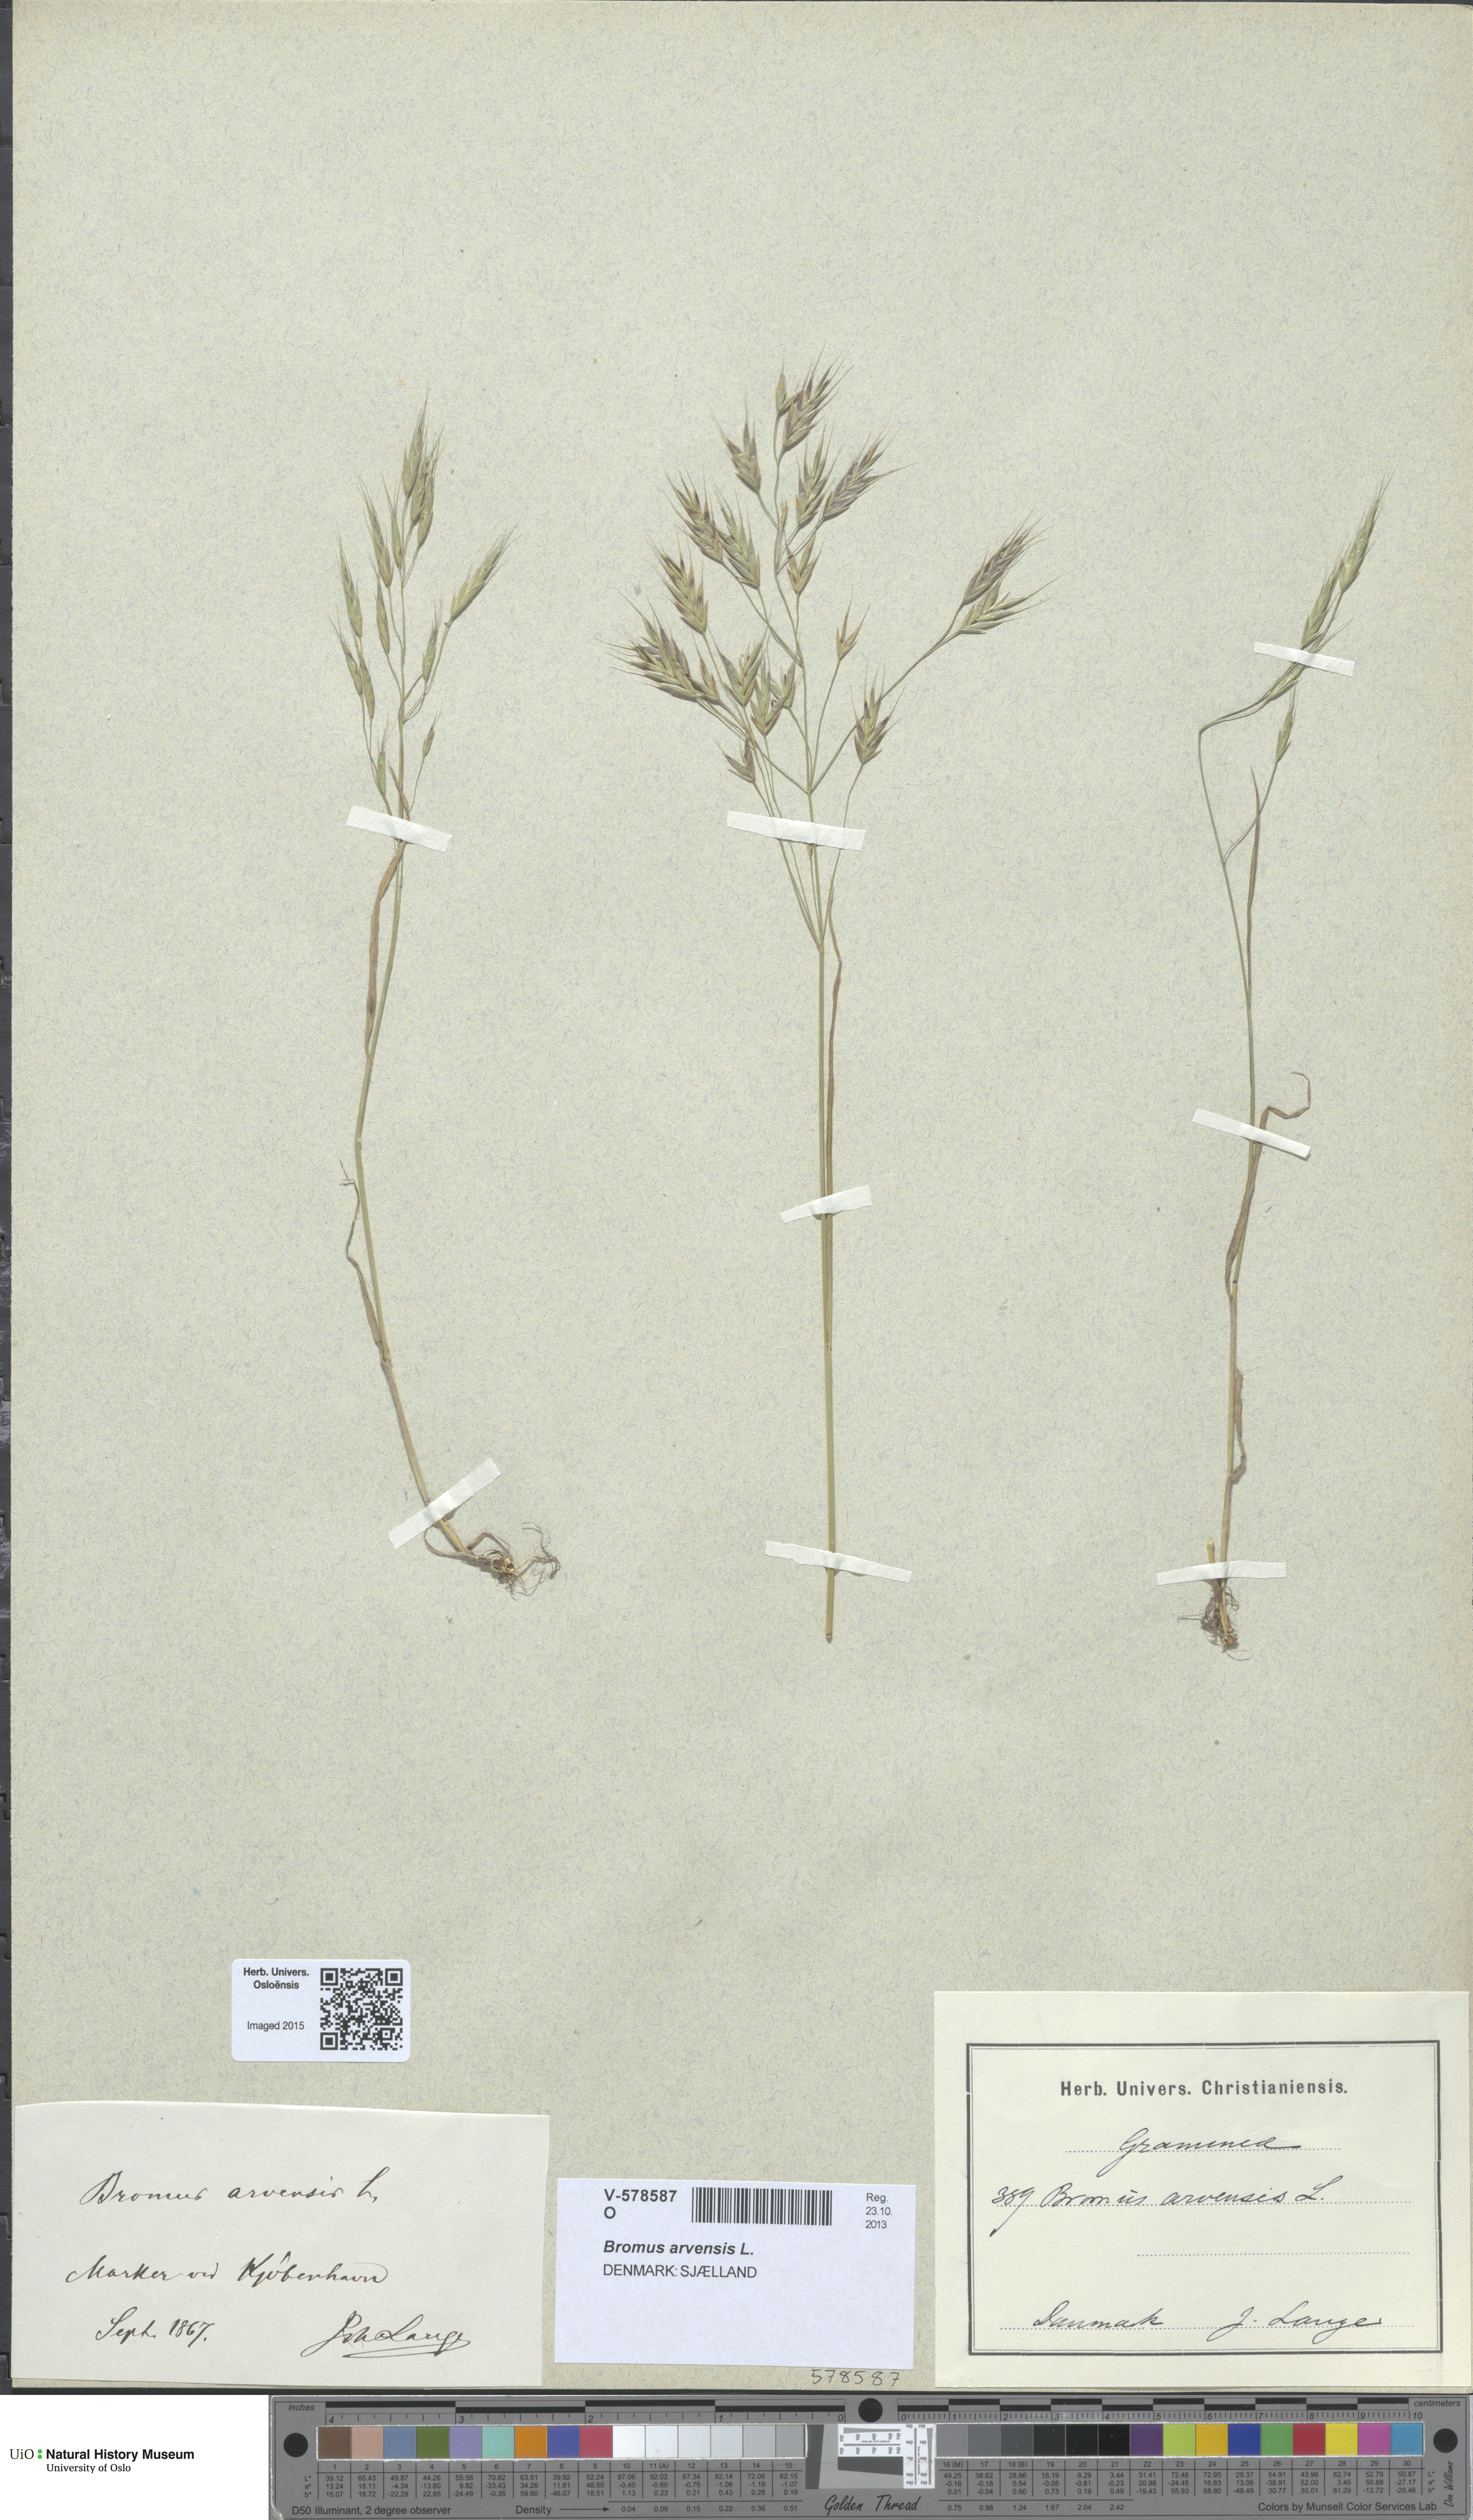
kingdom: Plantae
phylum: Tracheophyta
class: Liliopsida
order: Poales
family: Poaceae
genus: Bromus
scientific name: Bromus arvensis
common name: Field brome
